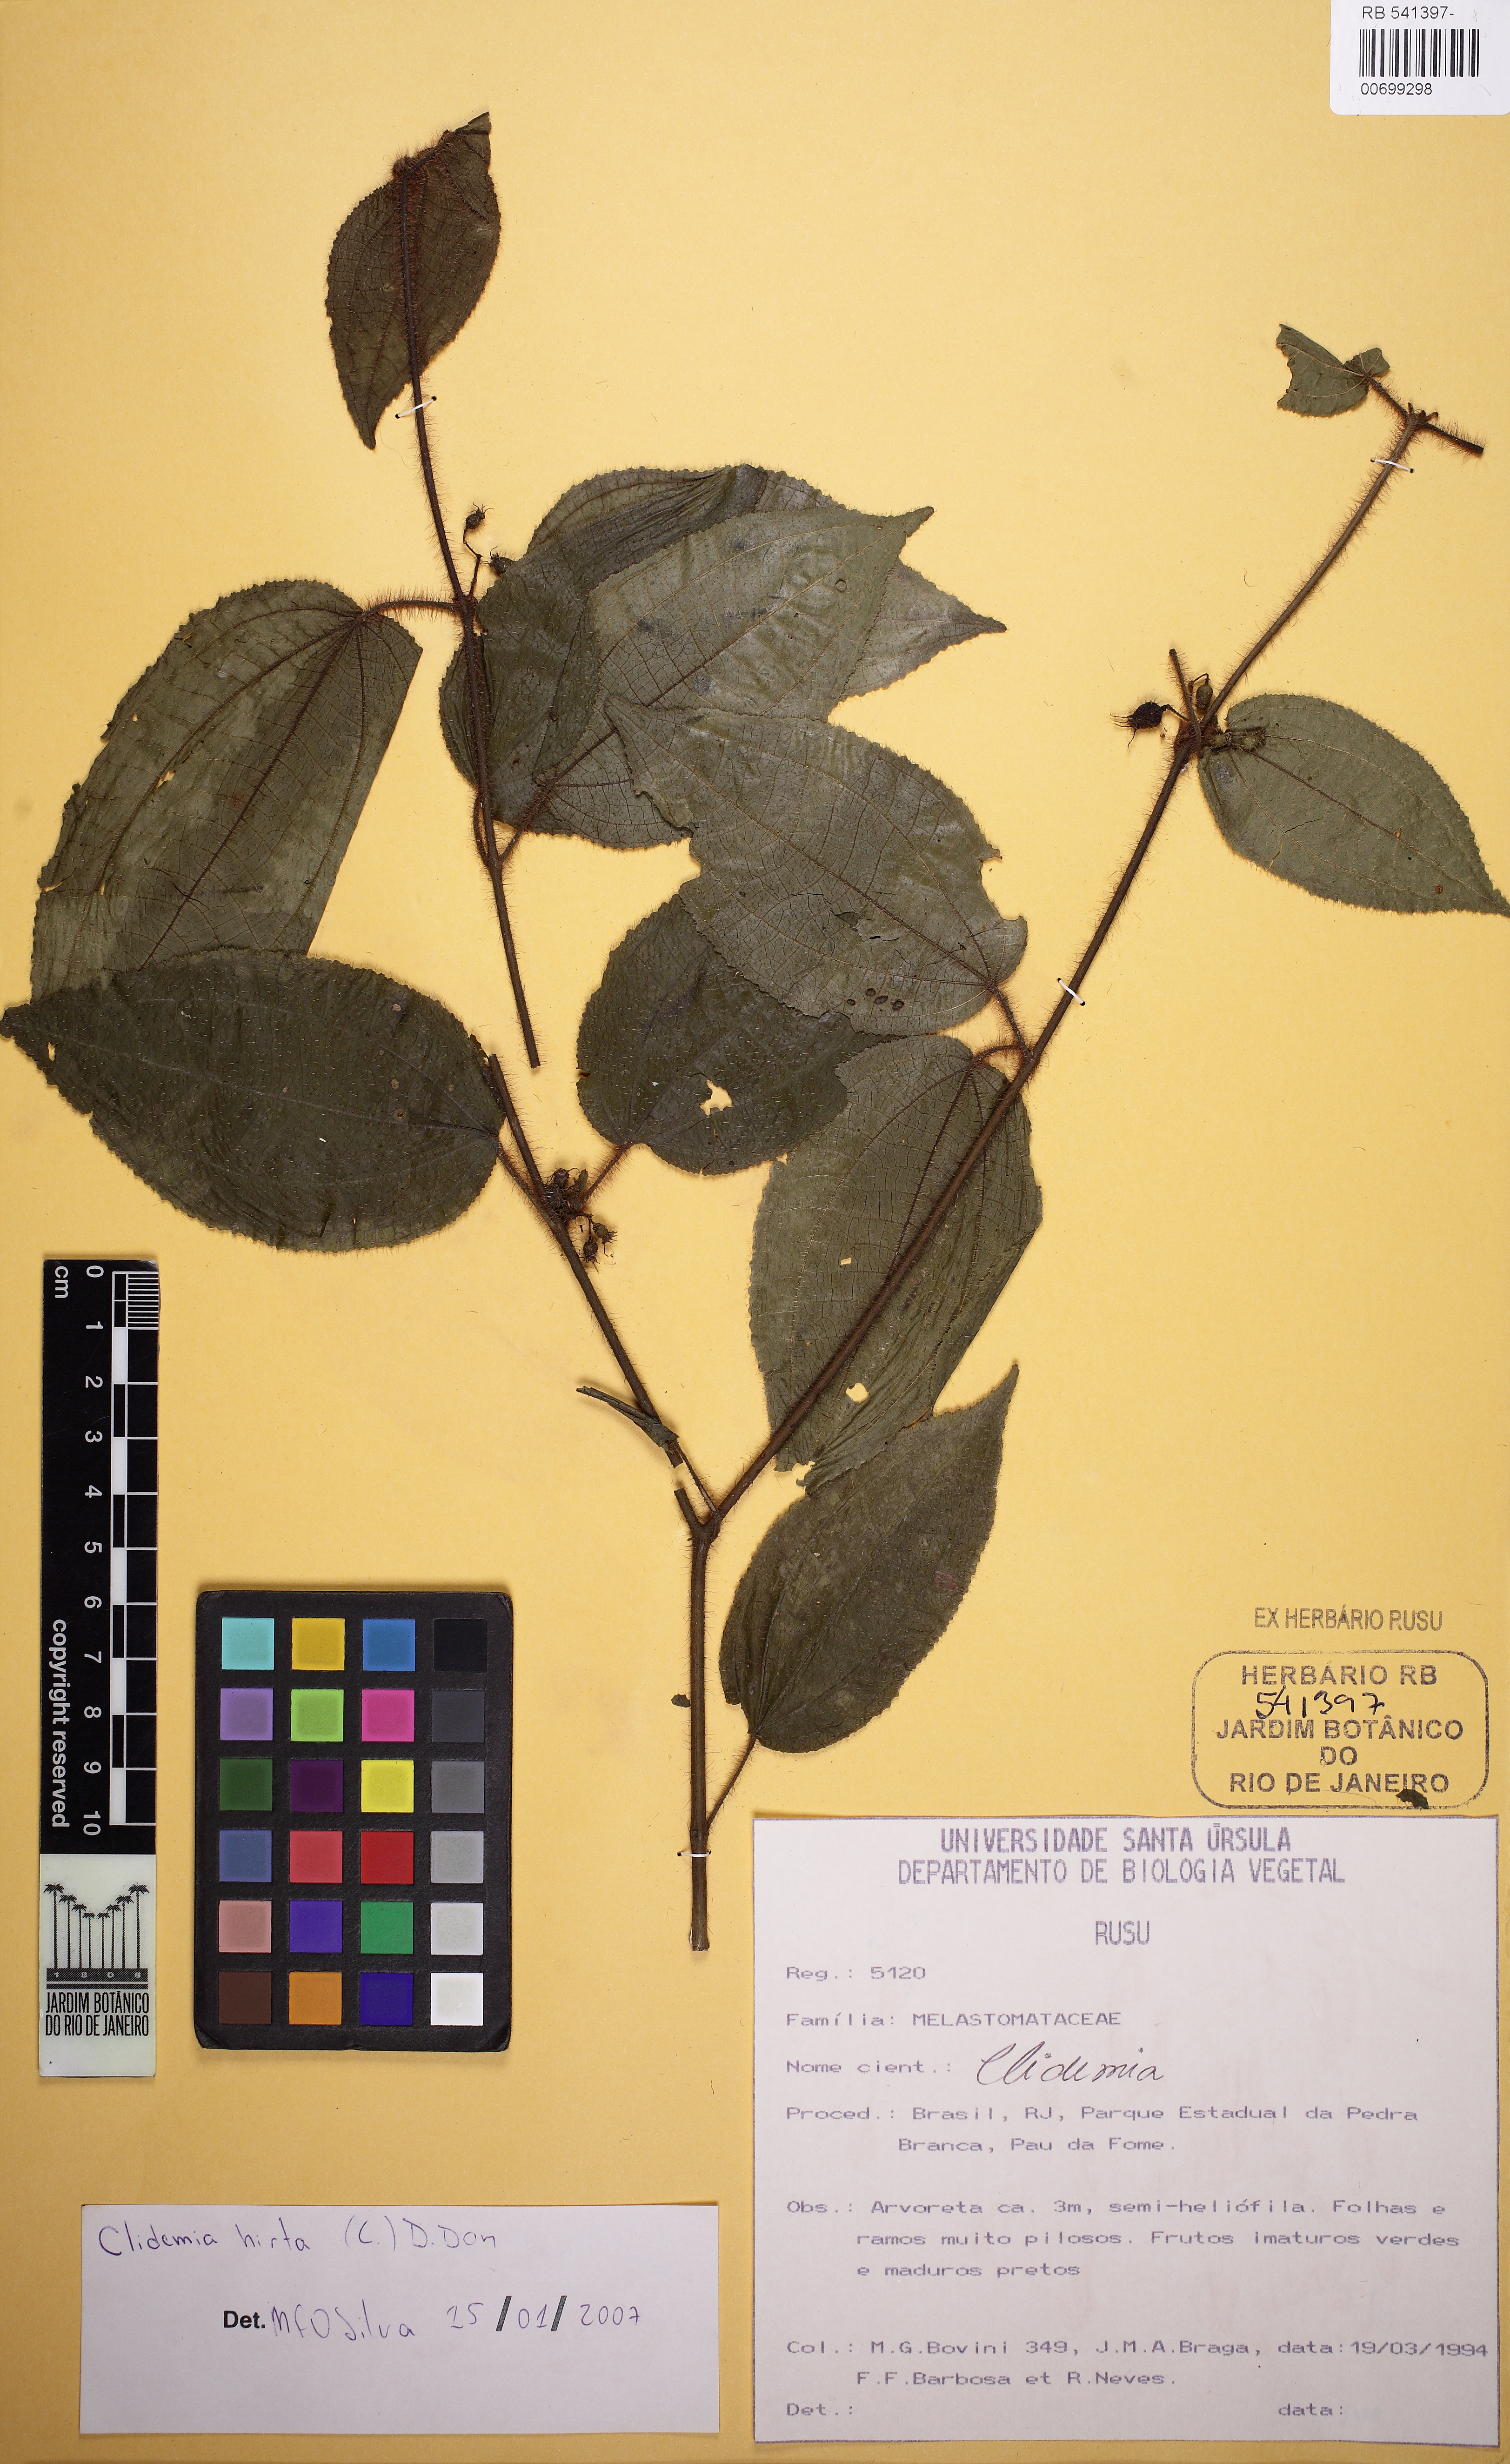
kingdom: Plantae
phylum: Tracheophyta
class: Magnoliopsida
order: Myrtales
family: Melastomataceae
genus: Miconia
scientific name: Miconia crenata
